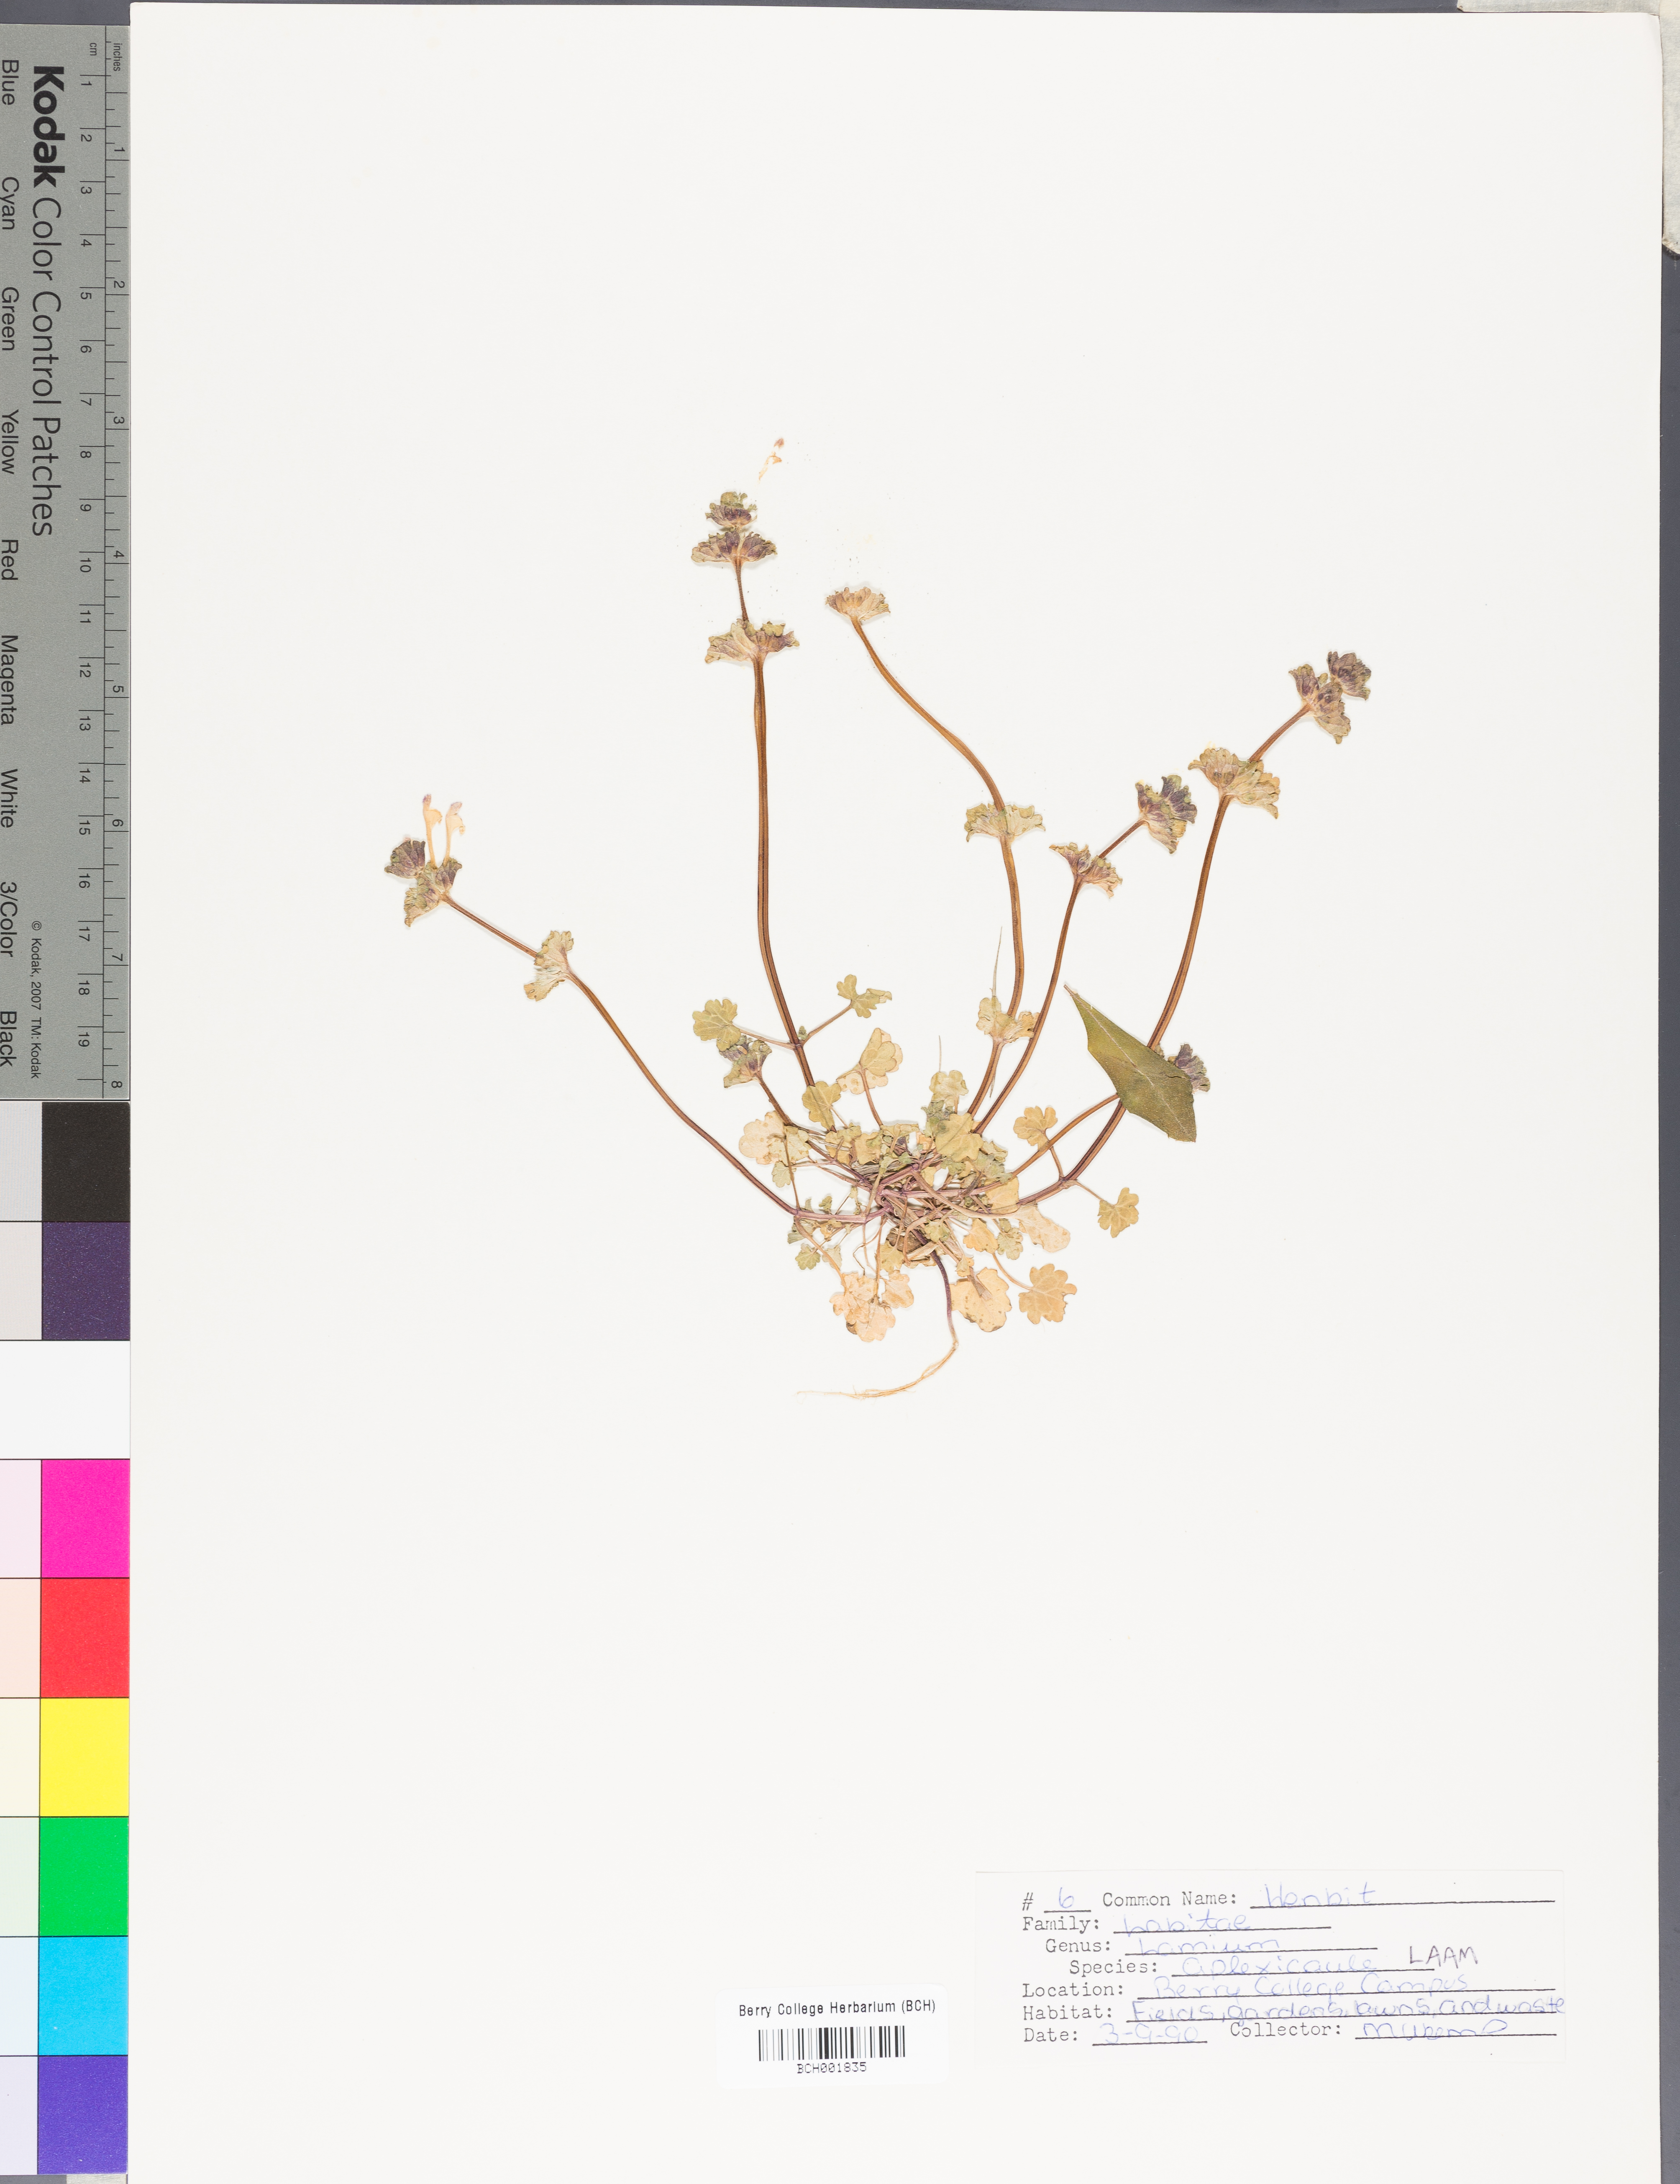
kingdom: Plantae
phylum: Tracheophyta
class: Magnoliopsida
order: Lamiales
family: Lamiaceae
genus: Lamium
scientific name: Lamium amplexicaule
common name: Henbit dead-nettle
